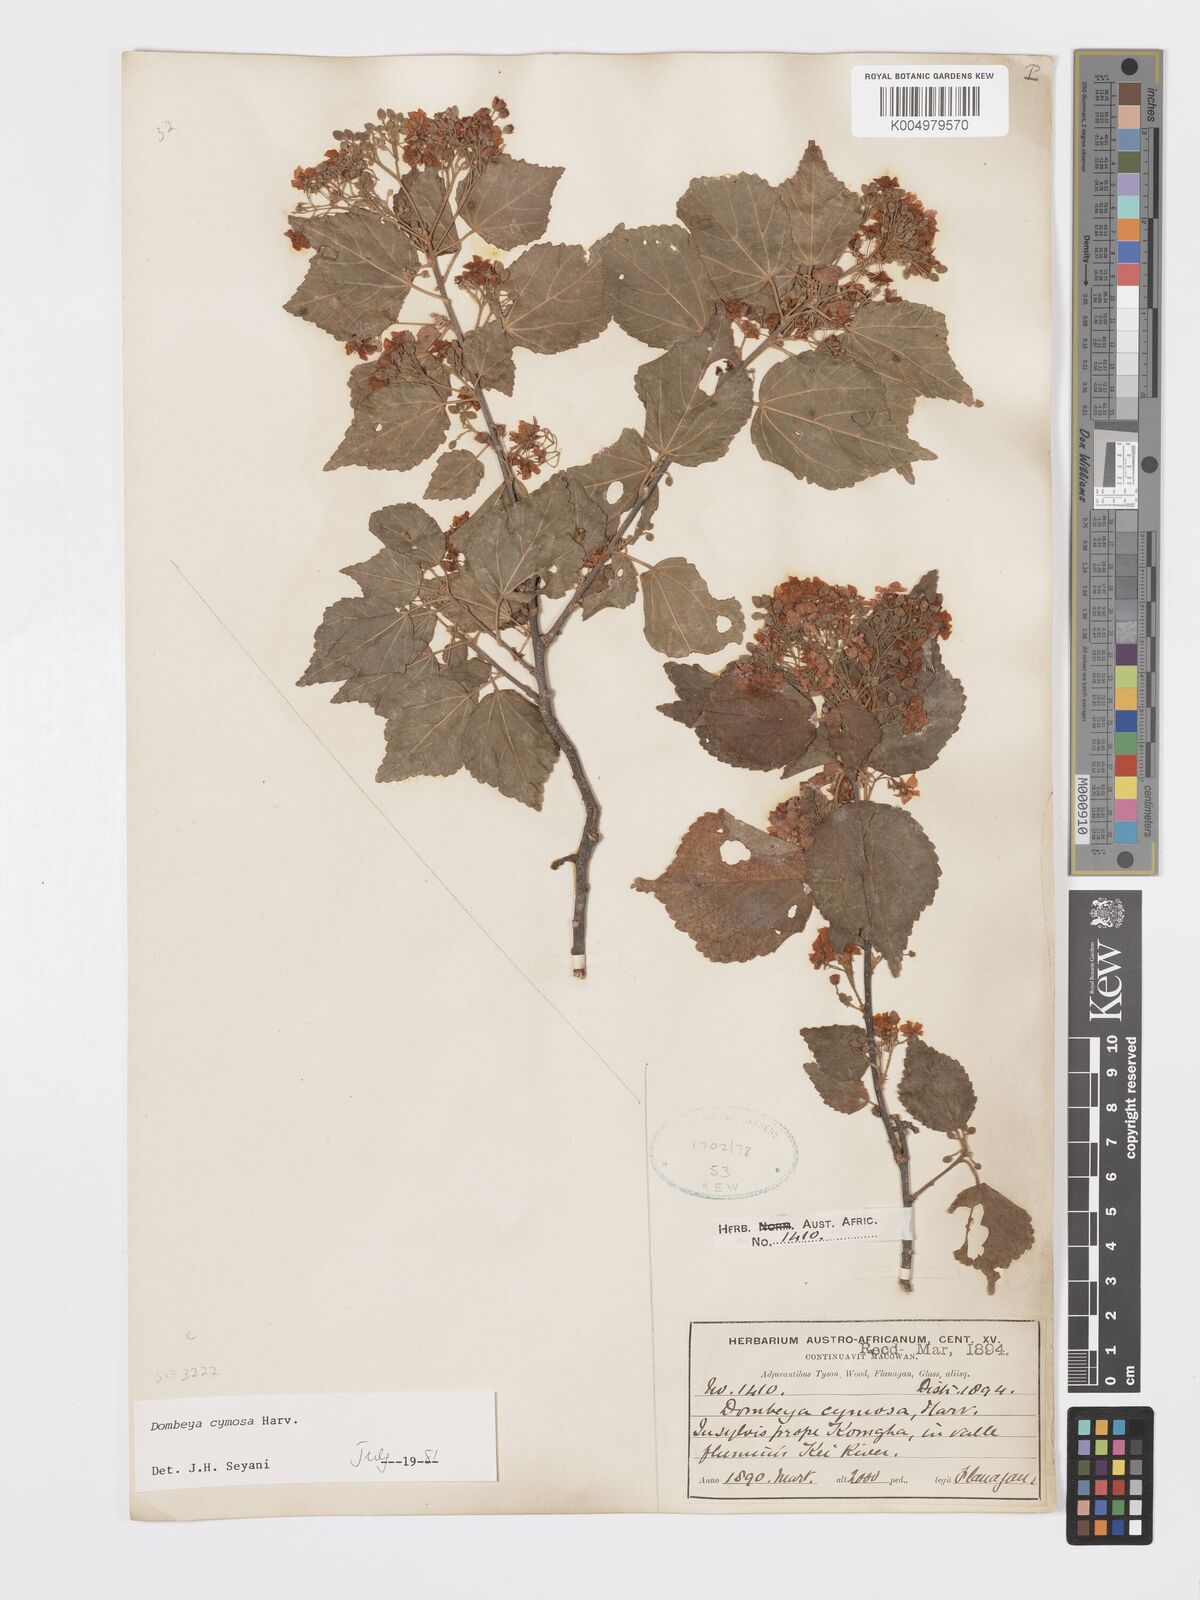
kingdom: Plantae
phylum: Tracheophyta
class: Magnoliopsida
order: Malvales
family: Malvaceae
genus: Dombeya
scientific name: Dombeya cymosa
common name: Hairless dombeya
